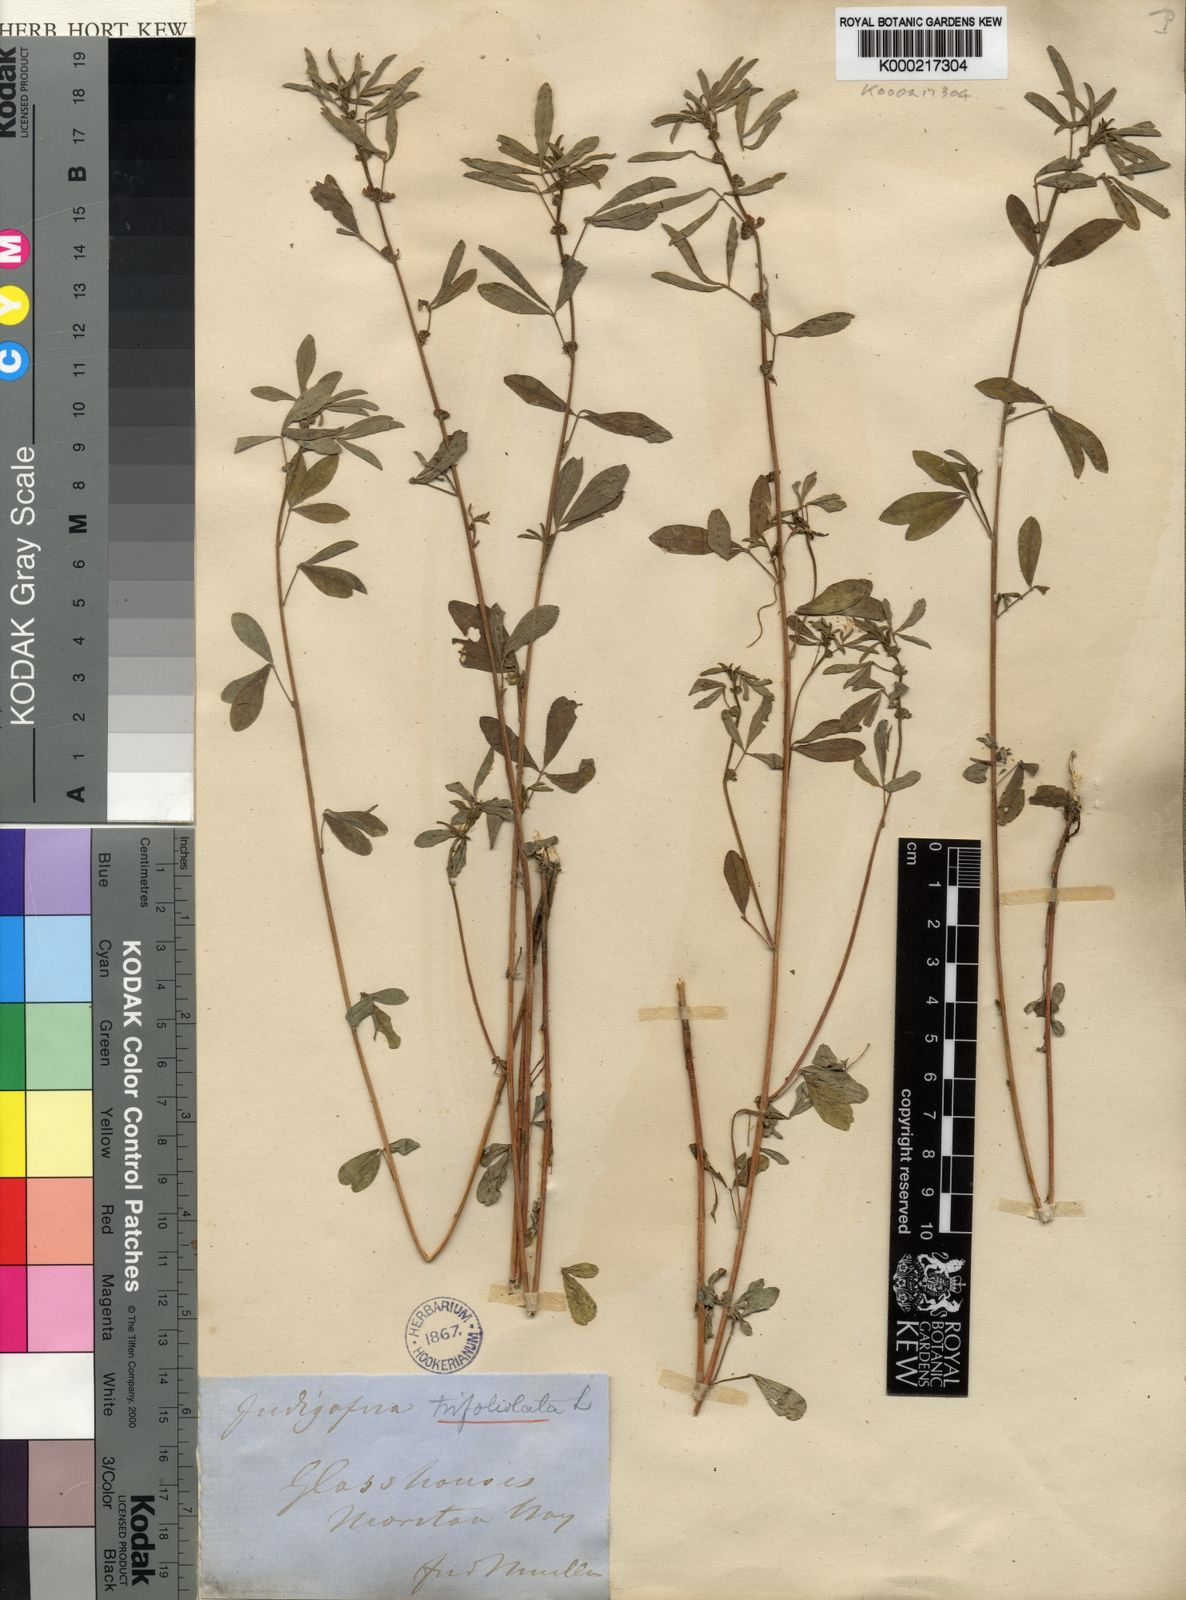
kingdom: Plantae
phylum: Tracheophyta
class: Magnoliopsida
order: Fabales
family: Fabaceae
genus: Indigofera
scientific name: Indigofera trifoliata
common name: Threeleaf indigo
